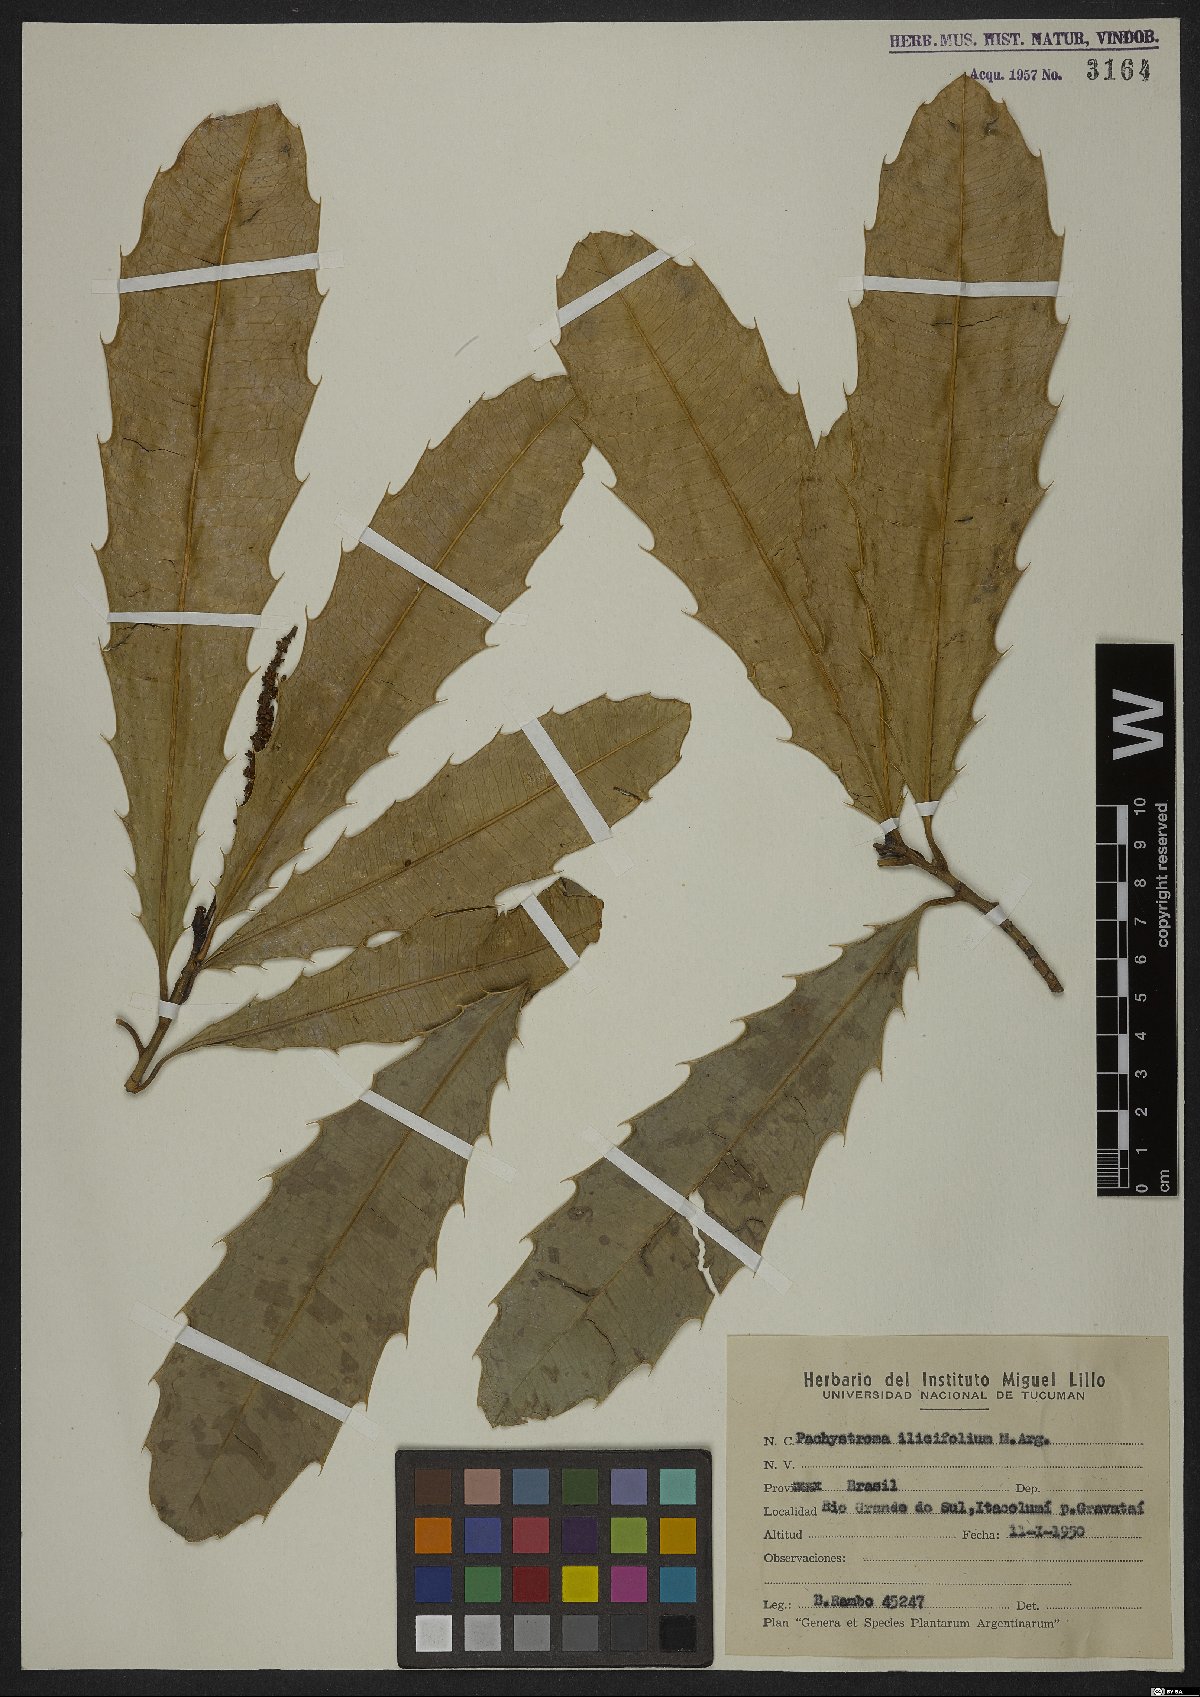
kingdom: Plantae
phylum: Tracheophyta
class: Magnoliopsida
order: Malpighiales
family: Euphorbiaceae
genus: Pachystroma
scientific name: Pachystroma longifolium
